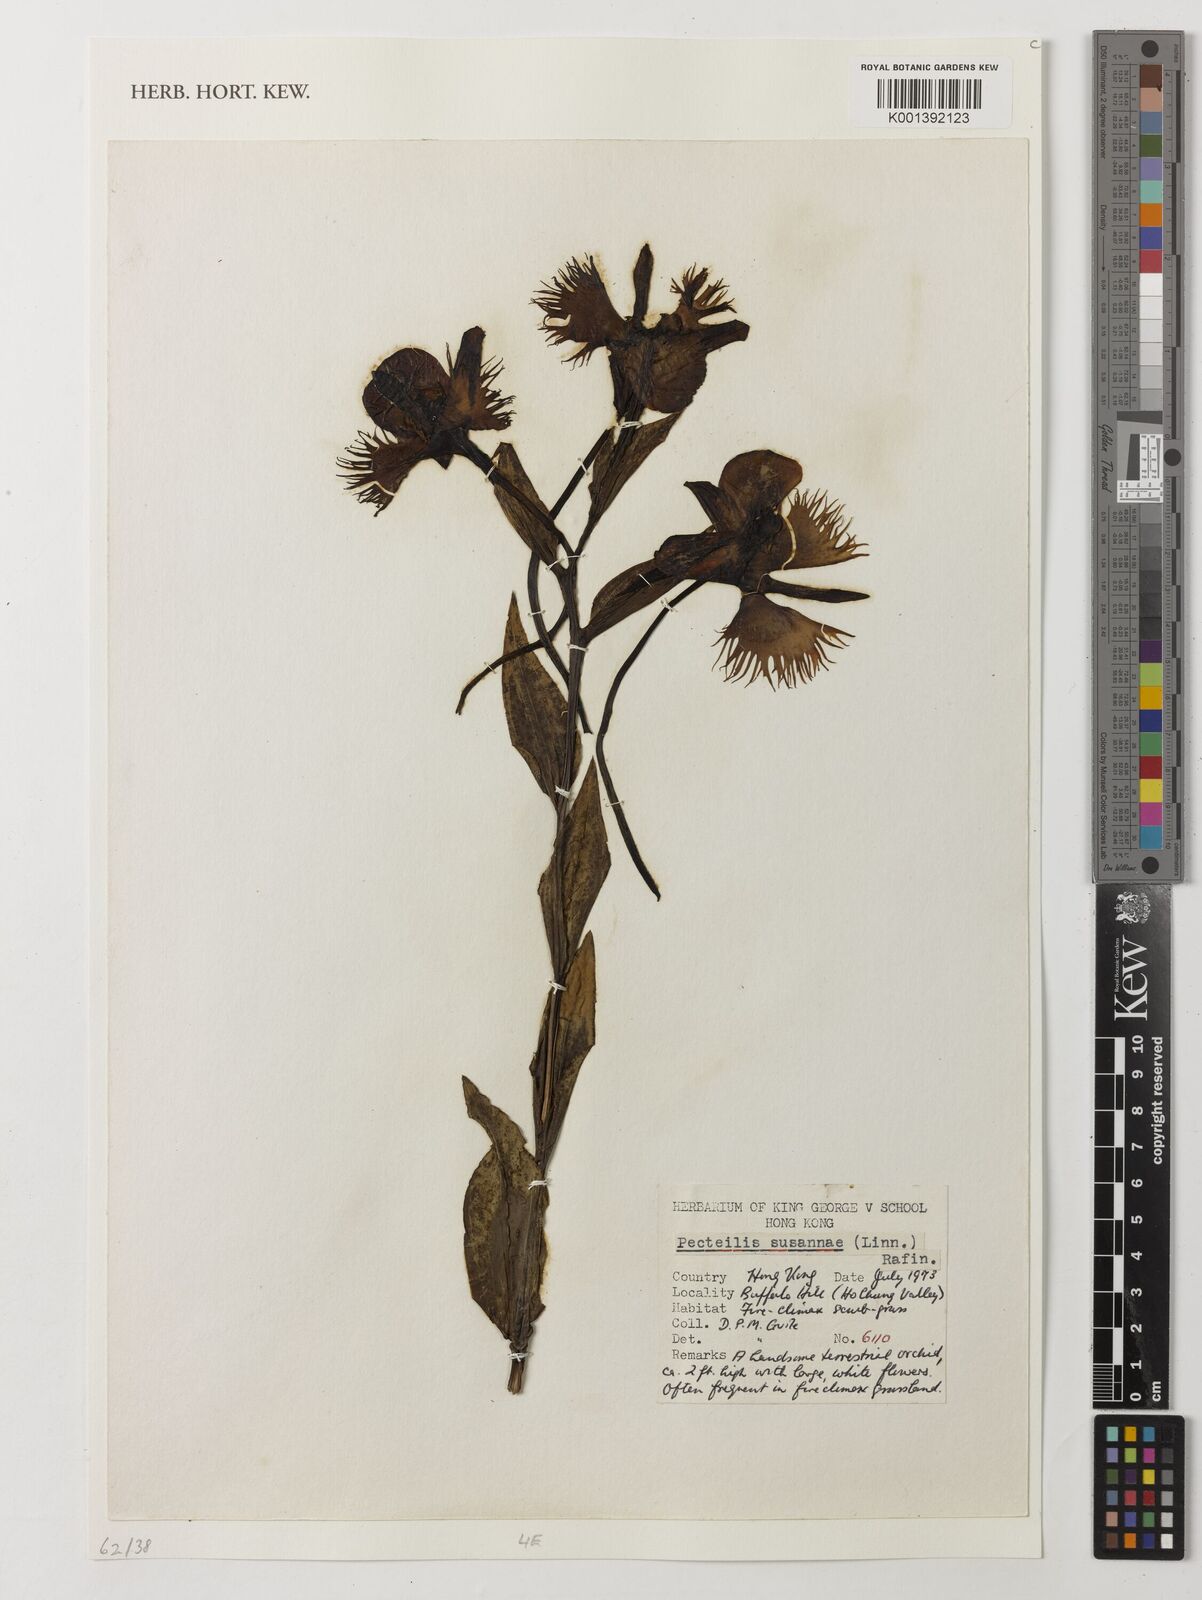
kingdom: Plantae
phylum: Tracheophyta
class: Liliopsida
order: Asparagales
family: Orchidaceae
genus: Pecteilis
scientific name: Pecteilis
